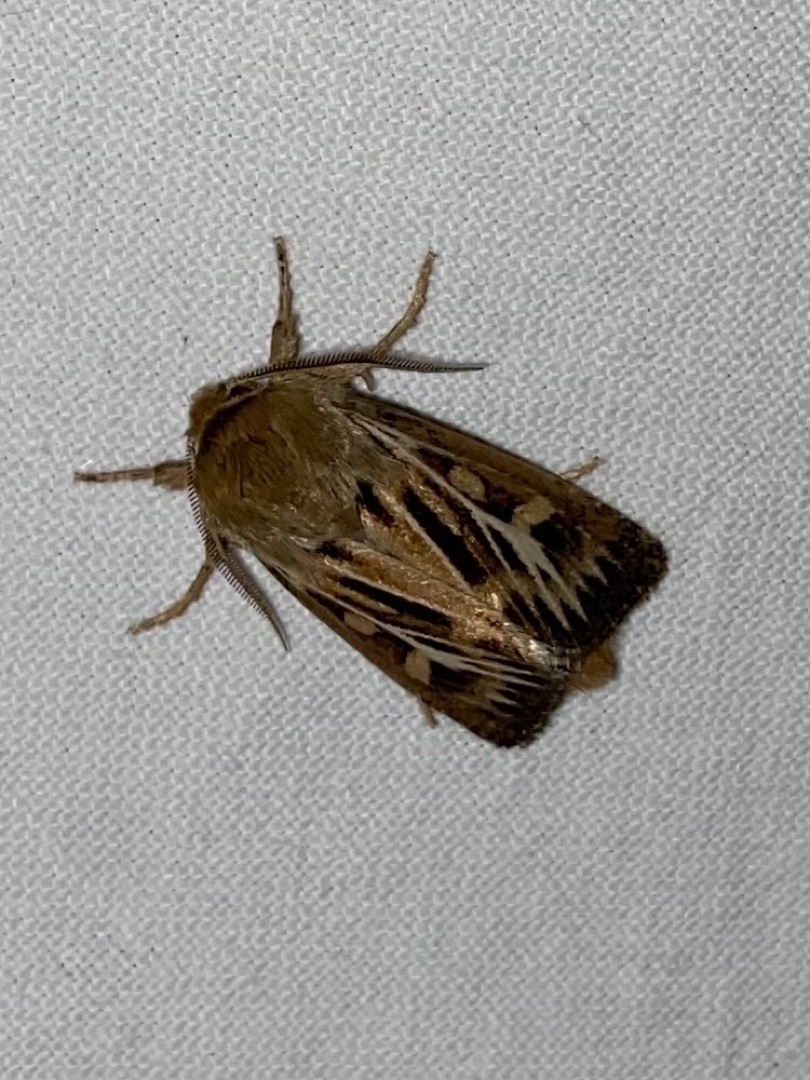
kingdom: Animalia
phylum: Arthropoda
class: Insecta
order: Lepidoptera
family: Noctuidae
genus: Cerapteryx
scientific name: Cerapteryx graminis
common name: Mosebunkeugle
